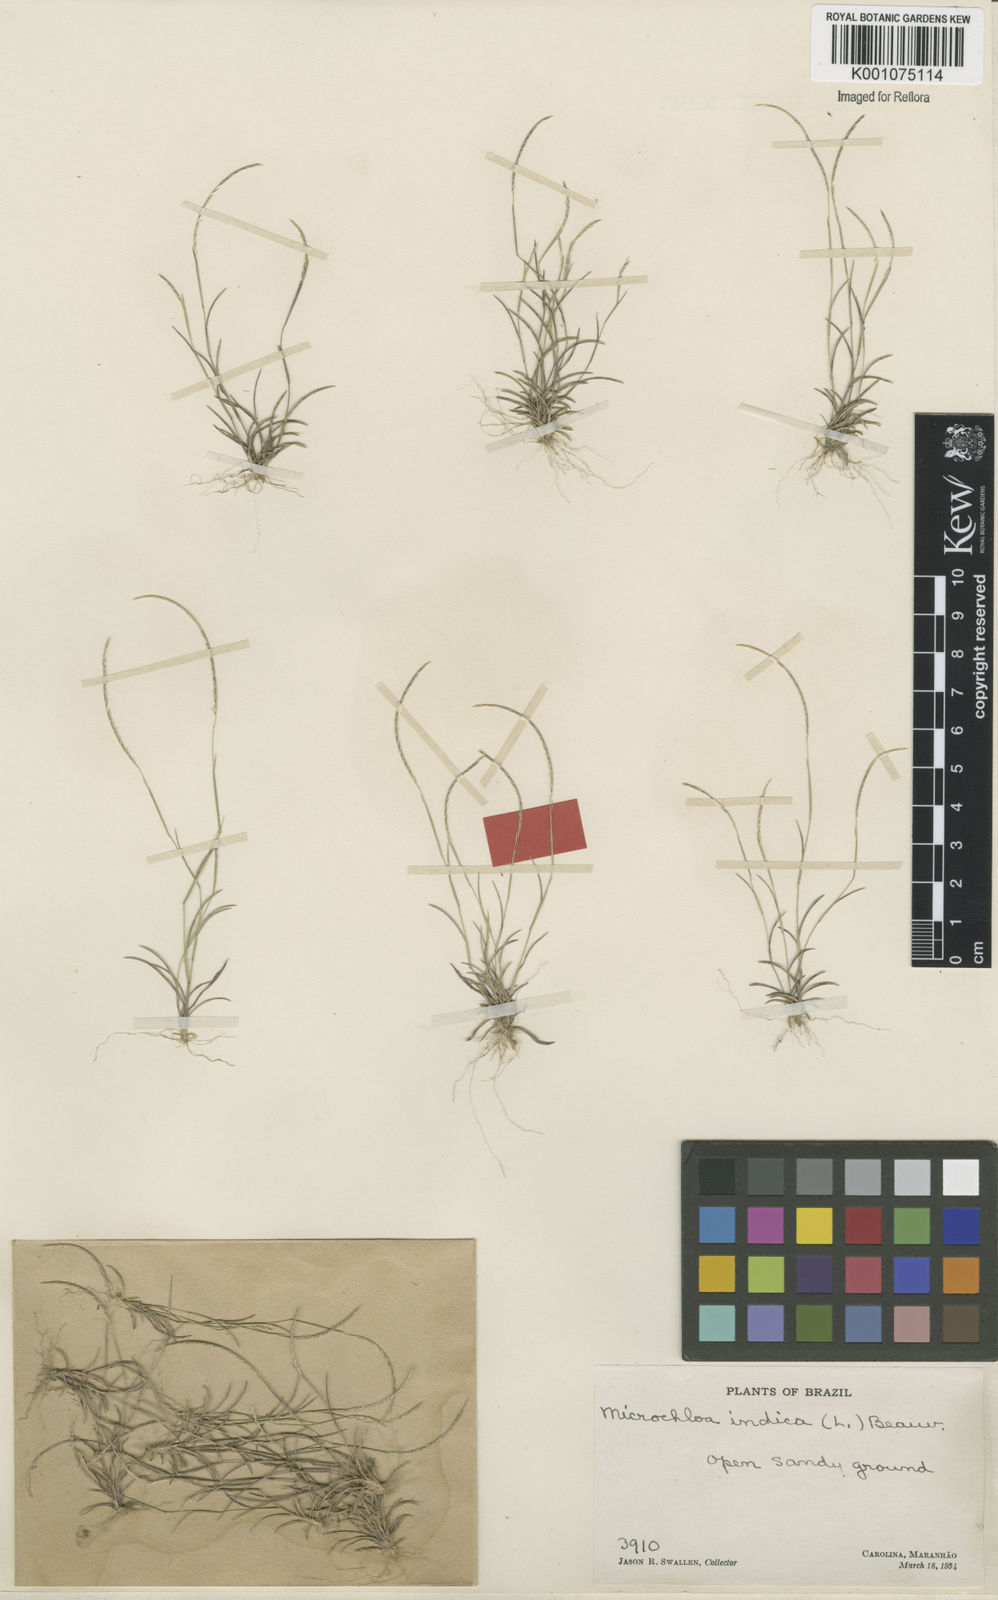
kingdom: Plantae
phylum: Tracheophyta
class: Liliopsida
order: Poales
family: Poaceae
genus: Microchloa
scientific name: Microchloa indica
